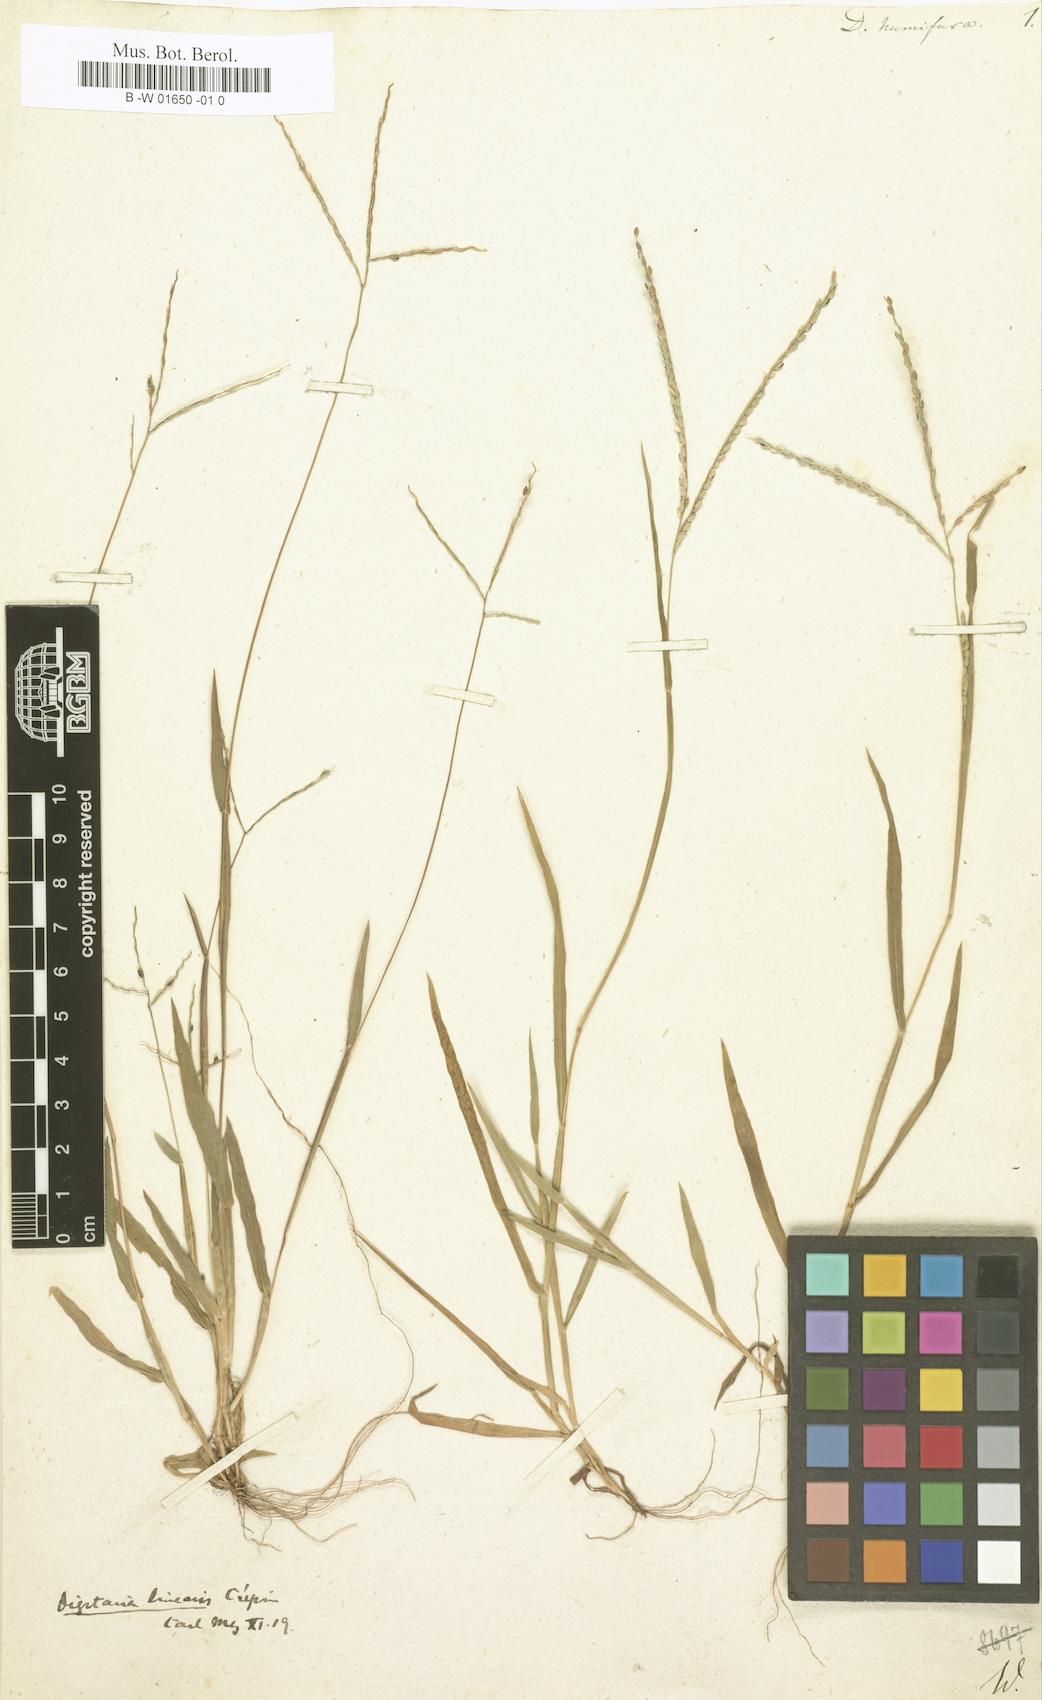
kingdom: Plantae
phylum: Tracheophyta
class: Liliopsida
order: Poales
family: Poaceae
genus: Digitaria
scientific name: Digitaria ischaemum
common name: Smooth crabgrass
